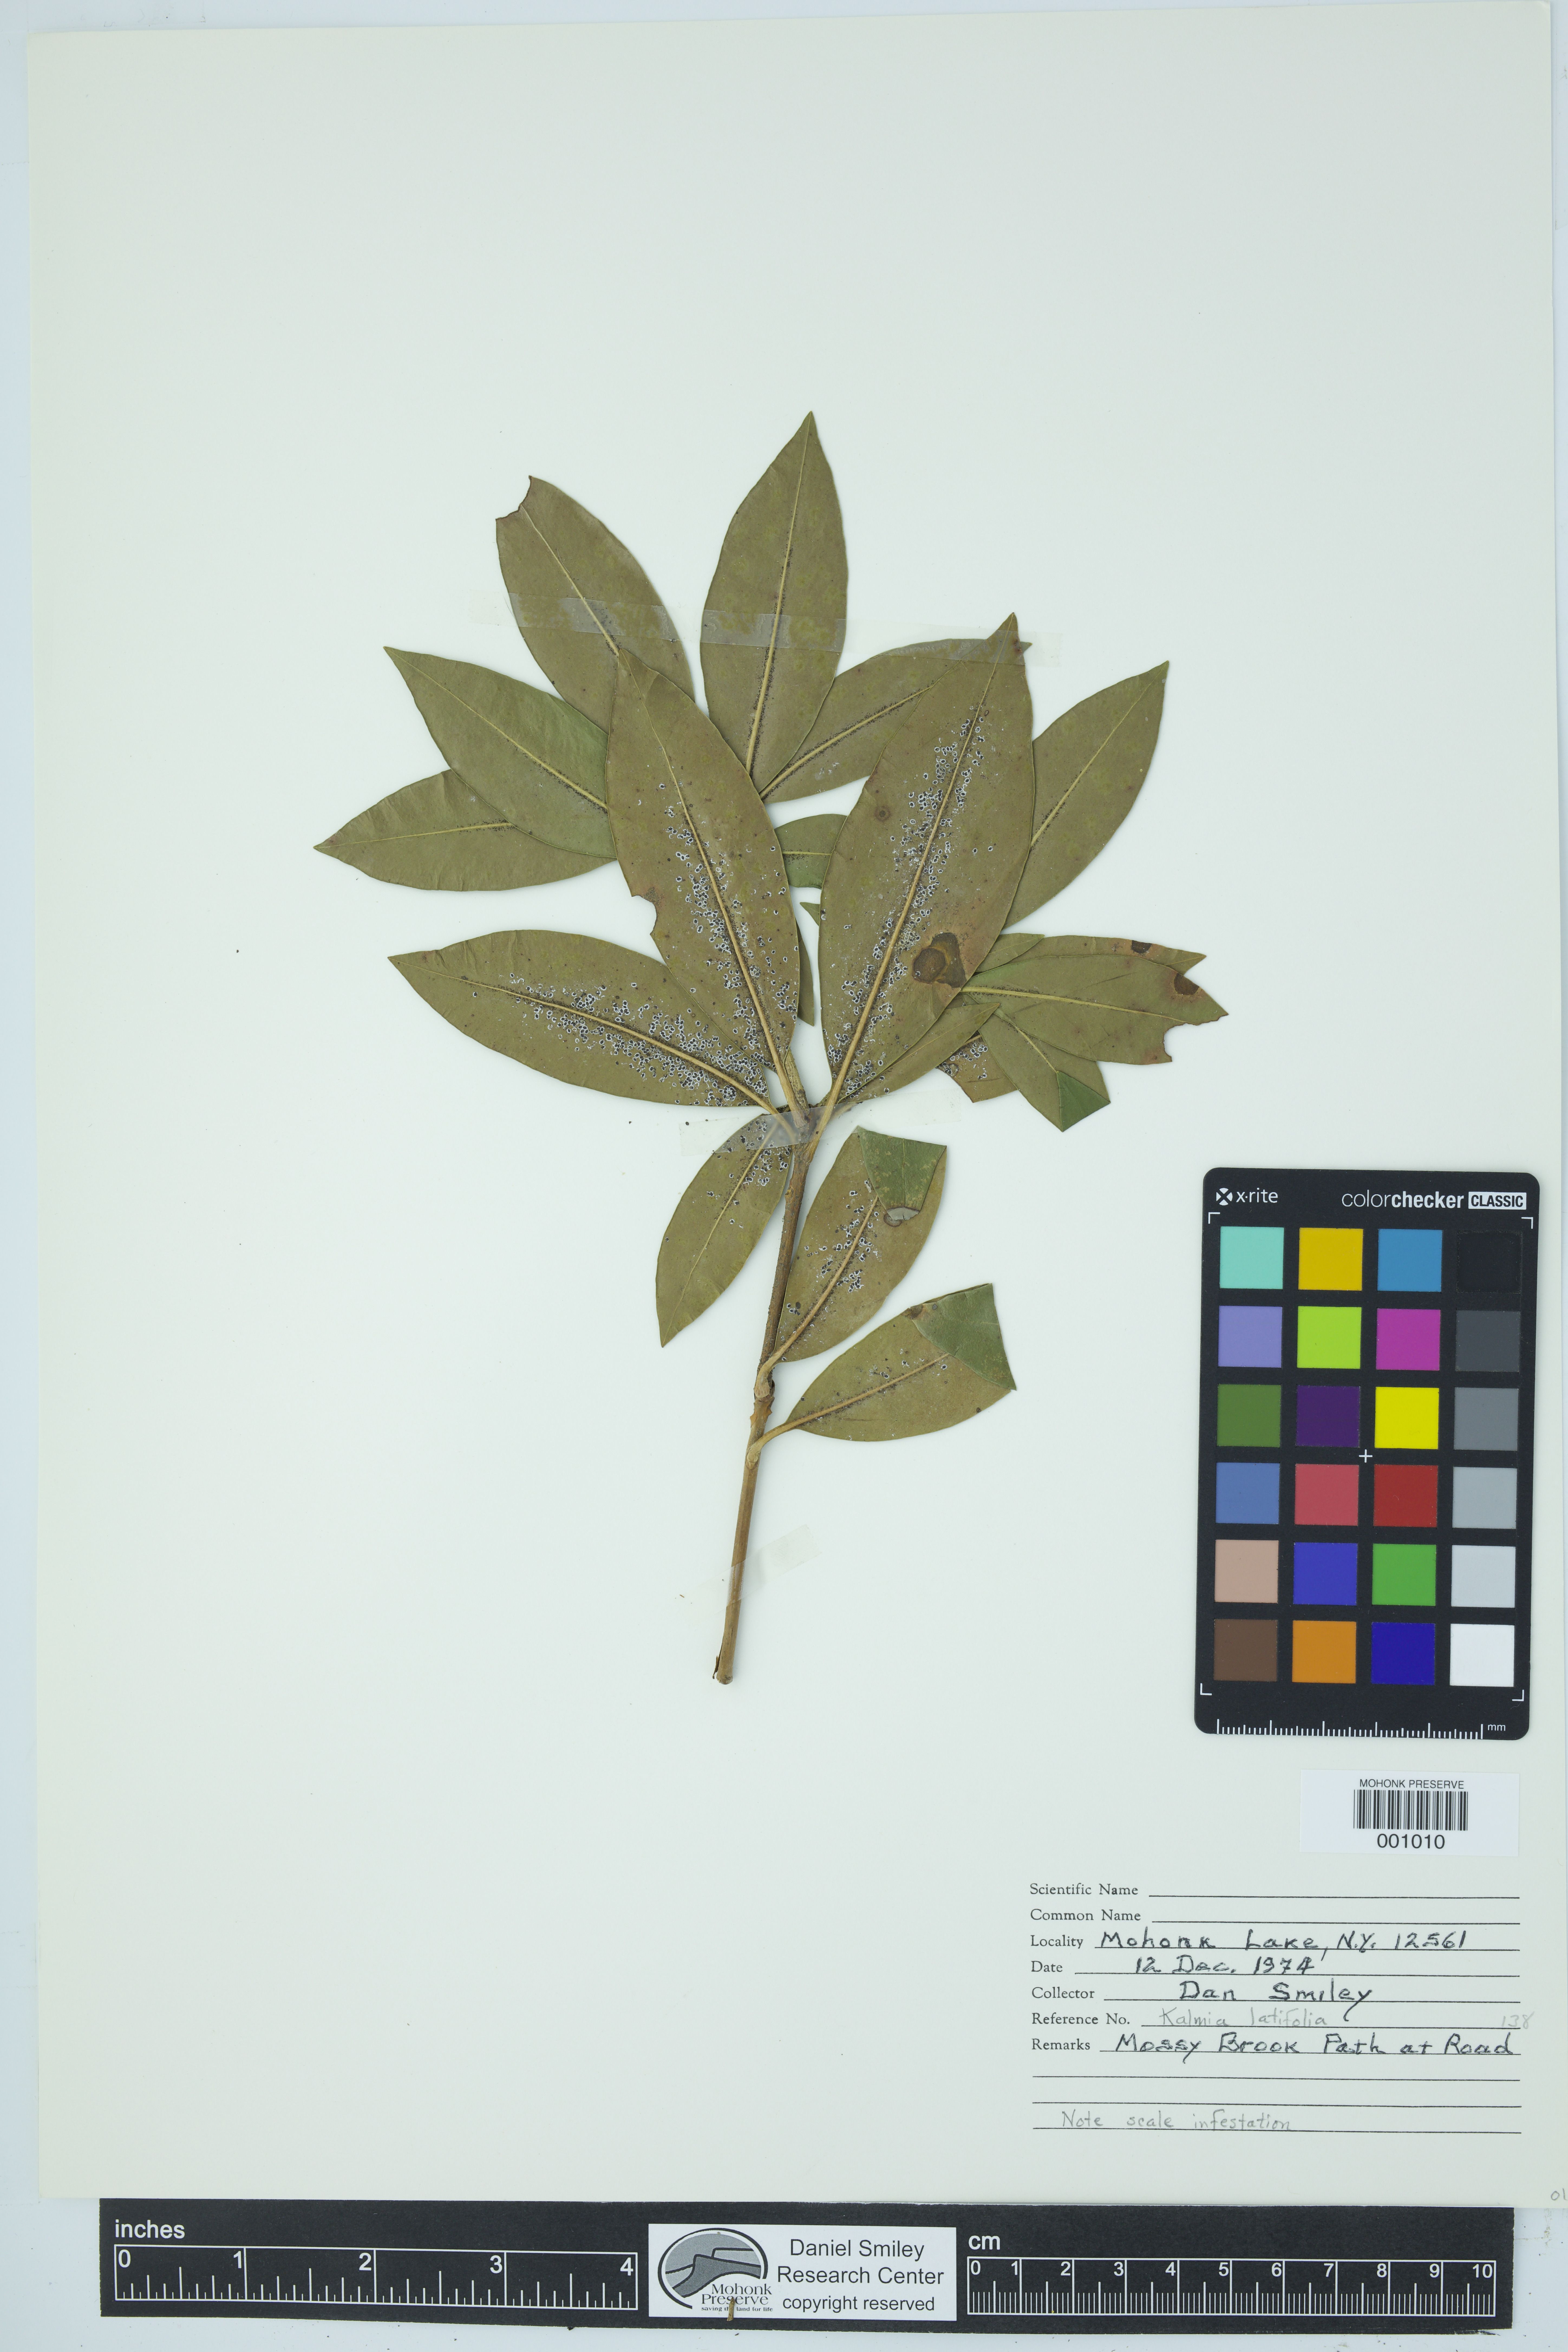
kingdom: Plantae
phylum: Tracheophyta
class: Magnoliopsida
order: Ericales
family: Ericaceae
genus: Kalmia
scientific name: Kalmia latifolia
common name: Mountain-laurel
